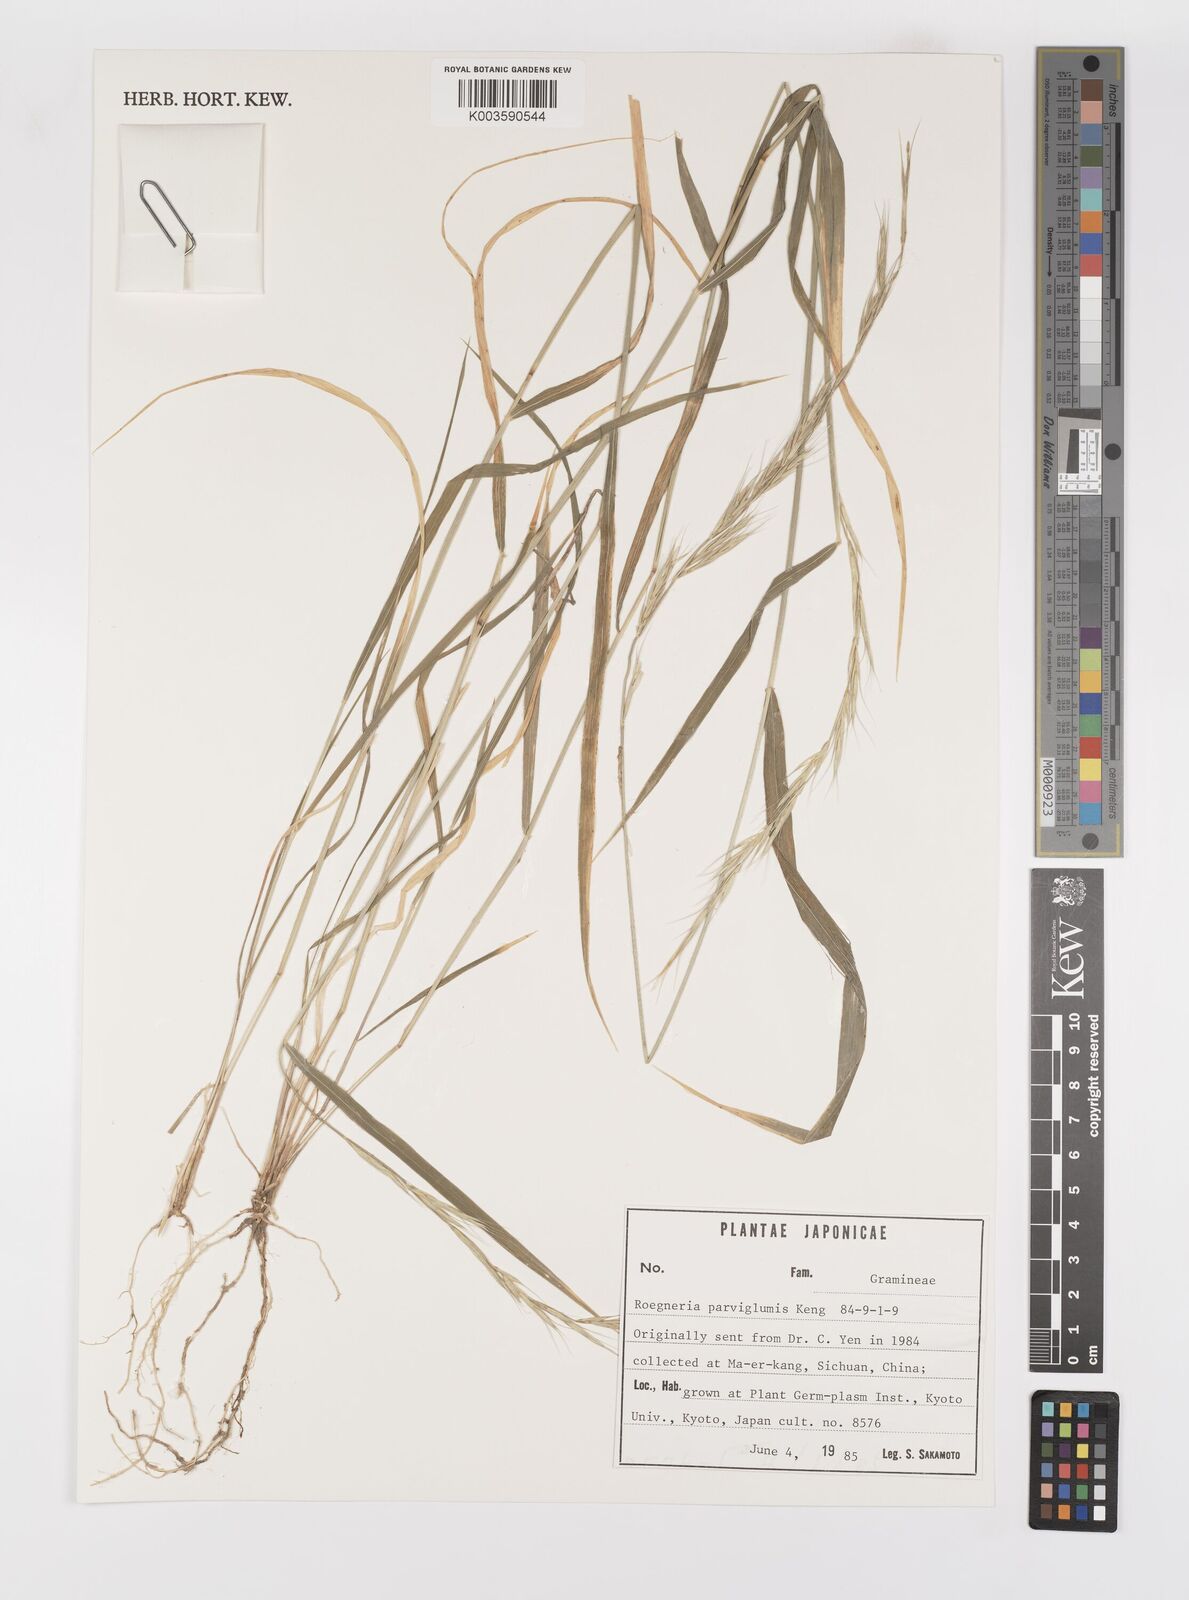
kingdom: Plantae
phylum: Tracheophyta
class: Liliopsida
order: Poales
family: Poaceae
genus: Elymus
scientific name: Elymus antiquus
